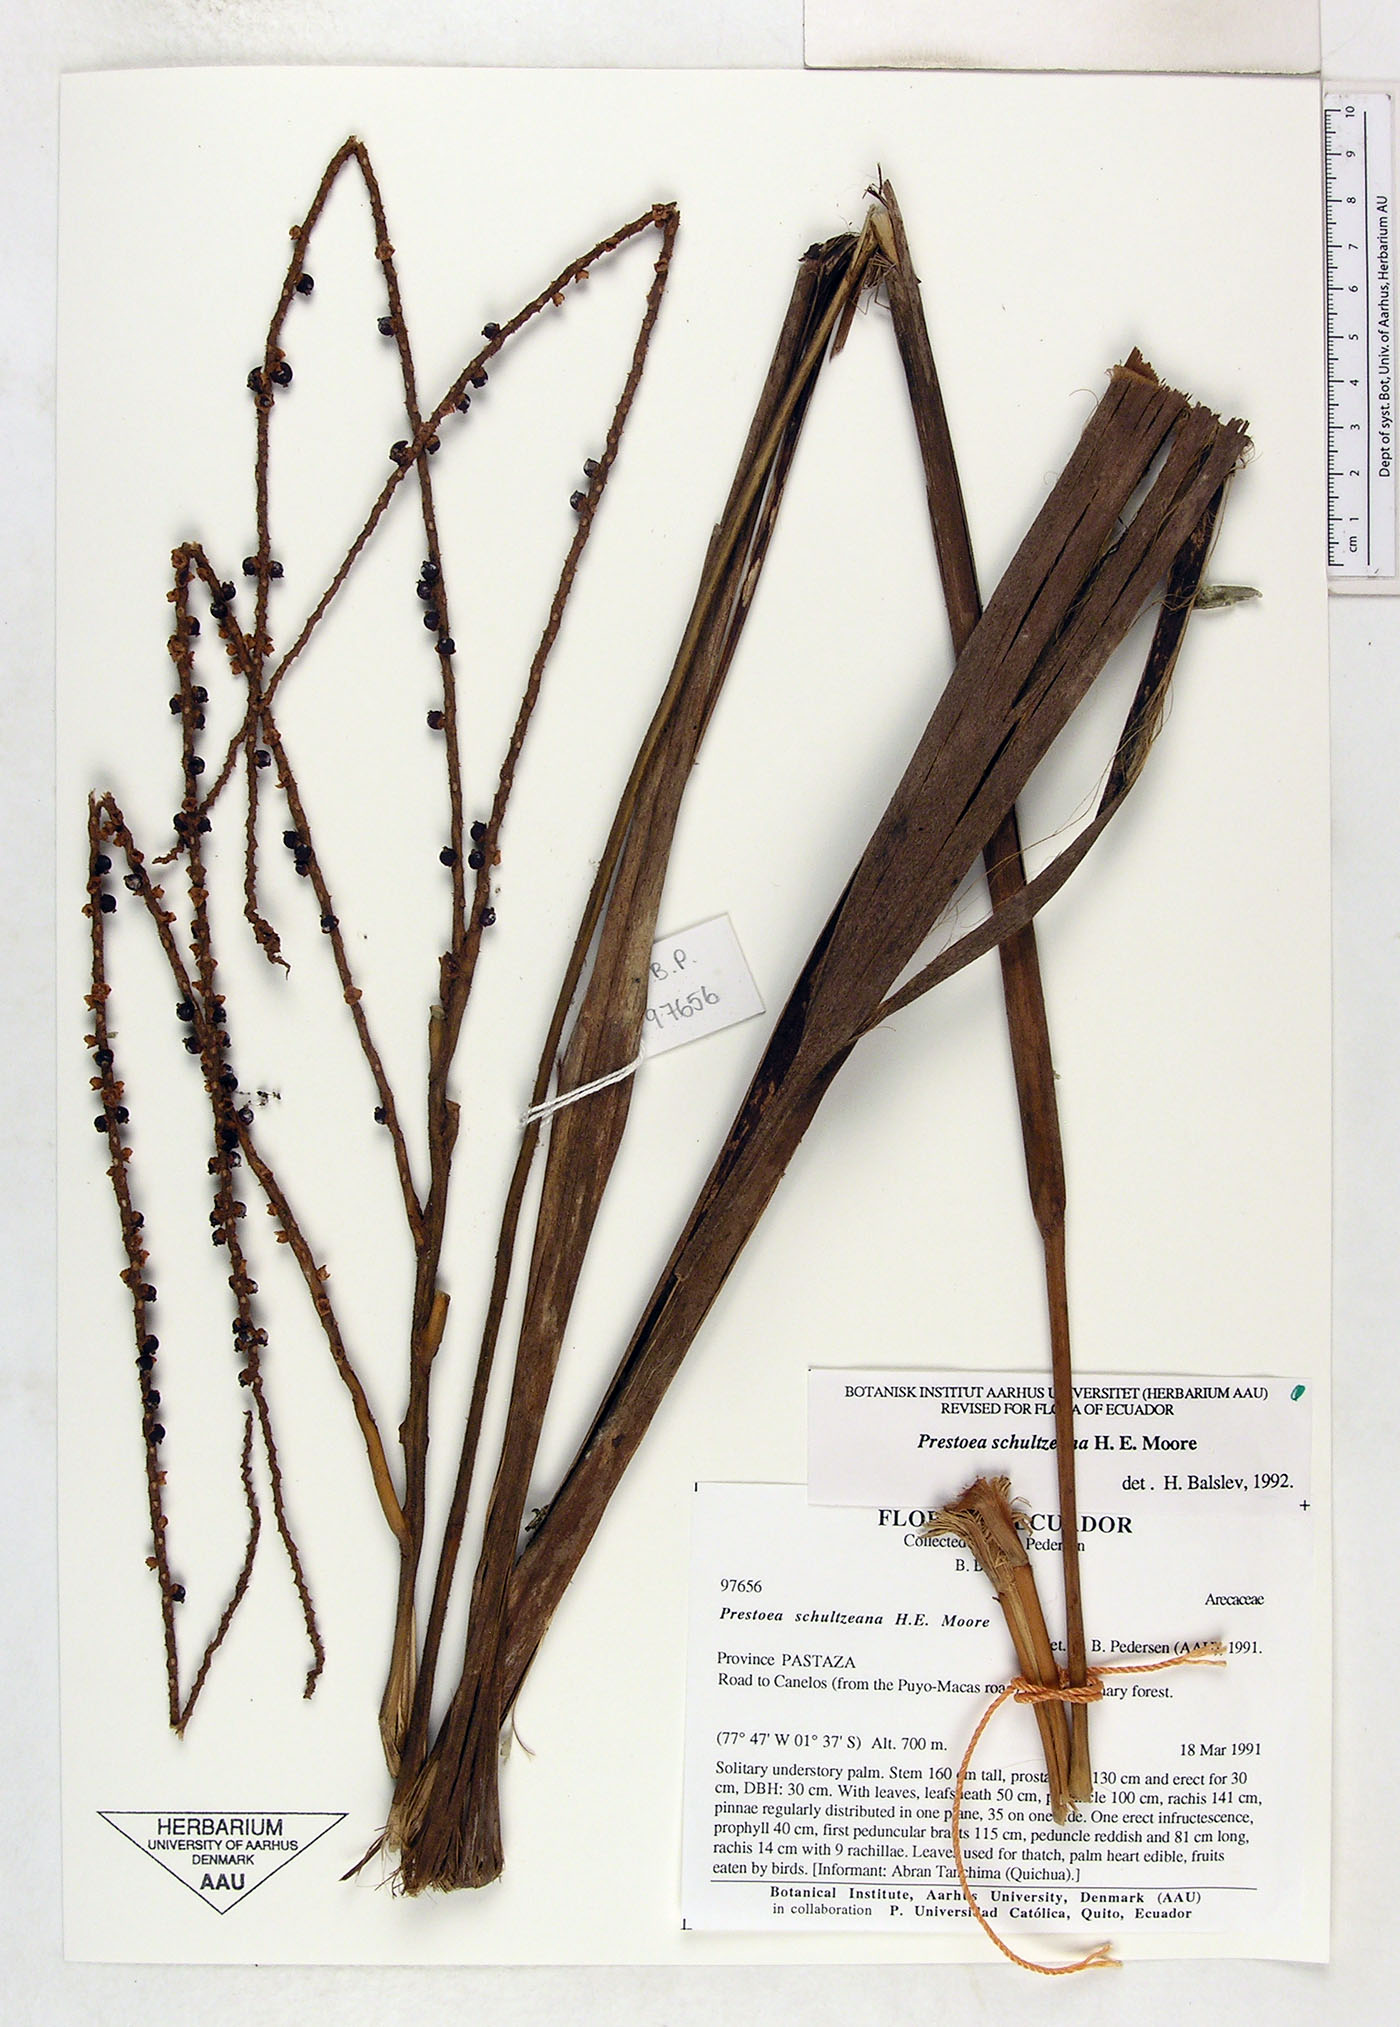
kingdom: Plantae
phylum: Tracheophyta
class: Liliopsida
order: Arecales
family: Arecaceae
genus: Prestoea
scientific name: Prestoea schultzeana
